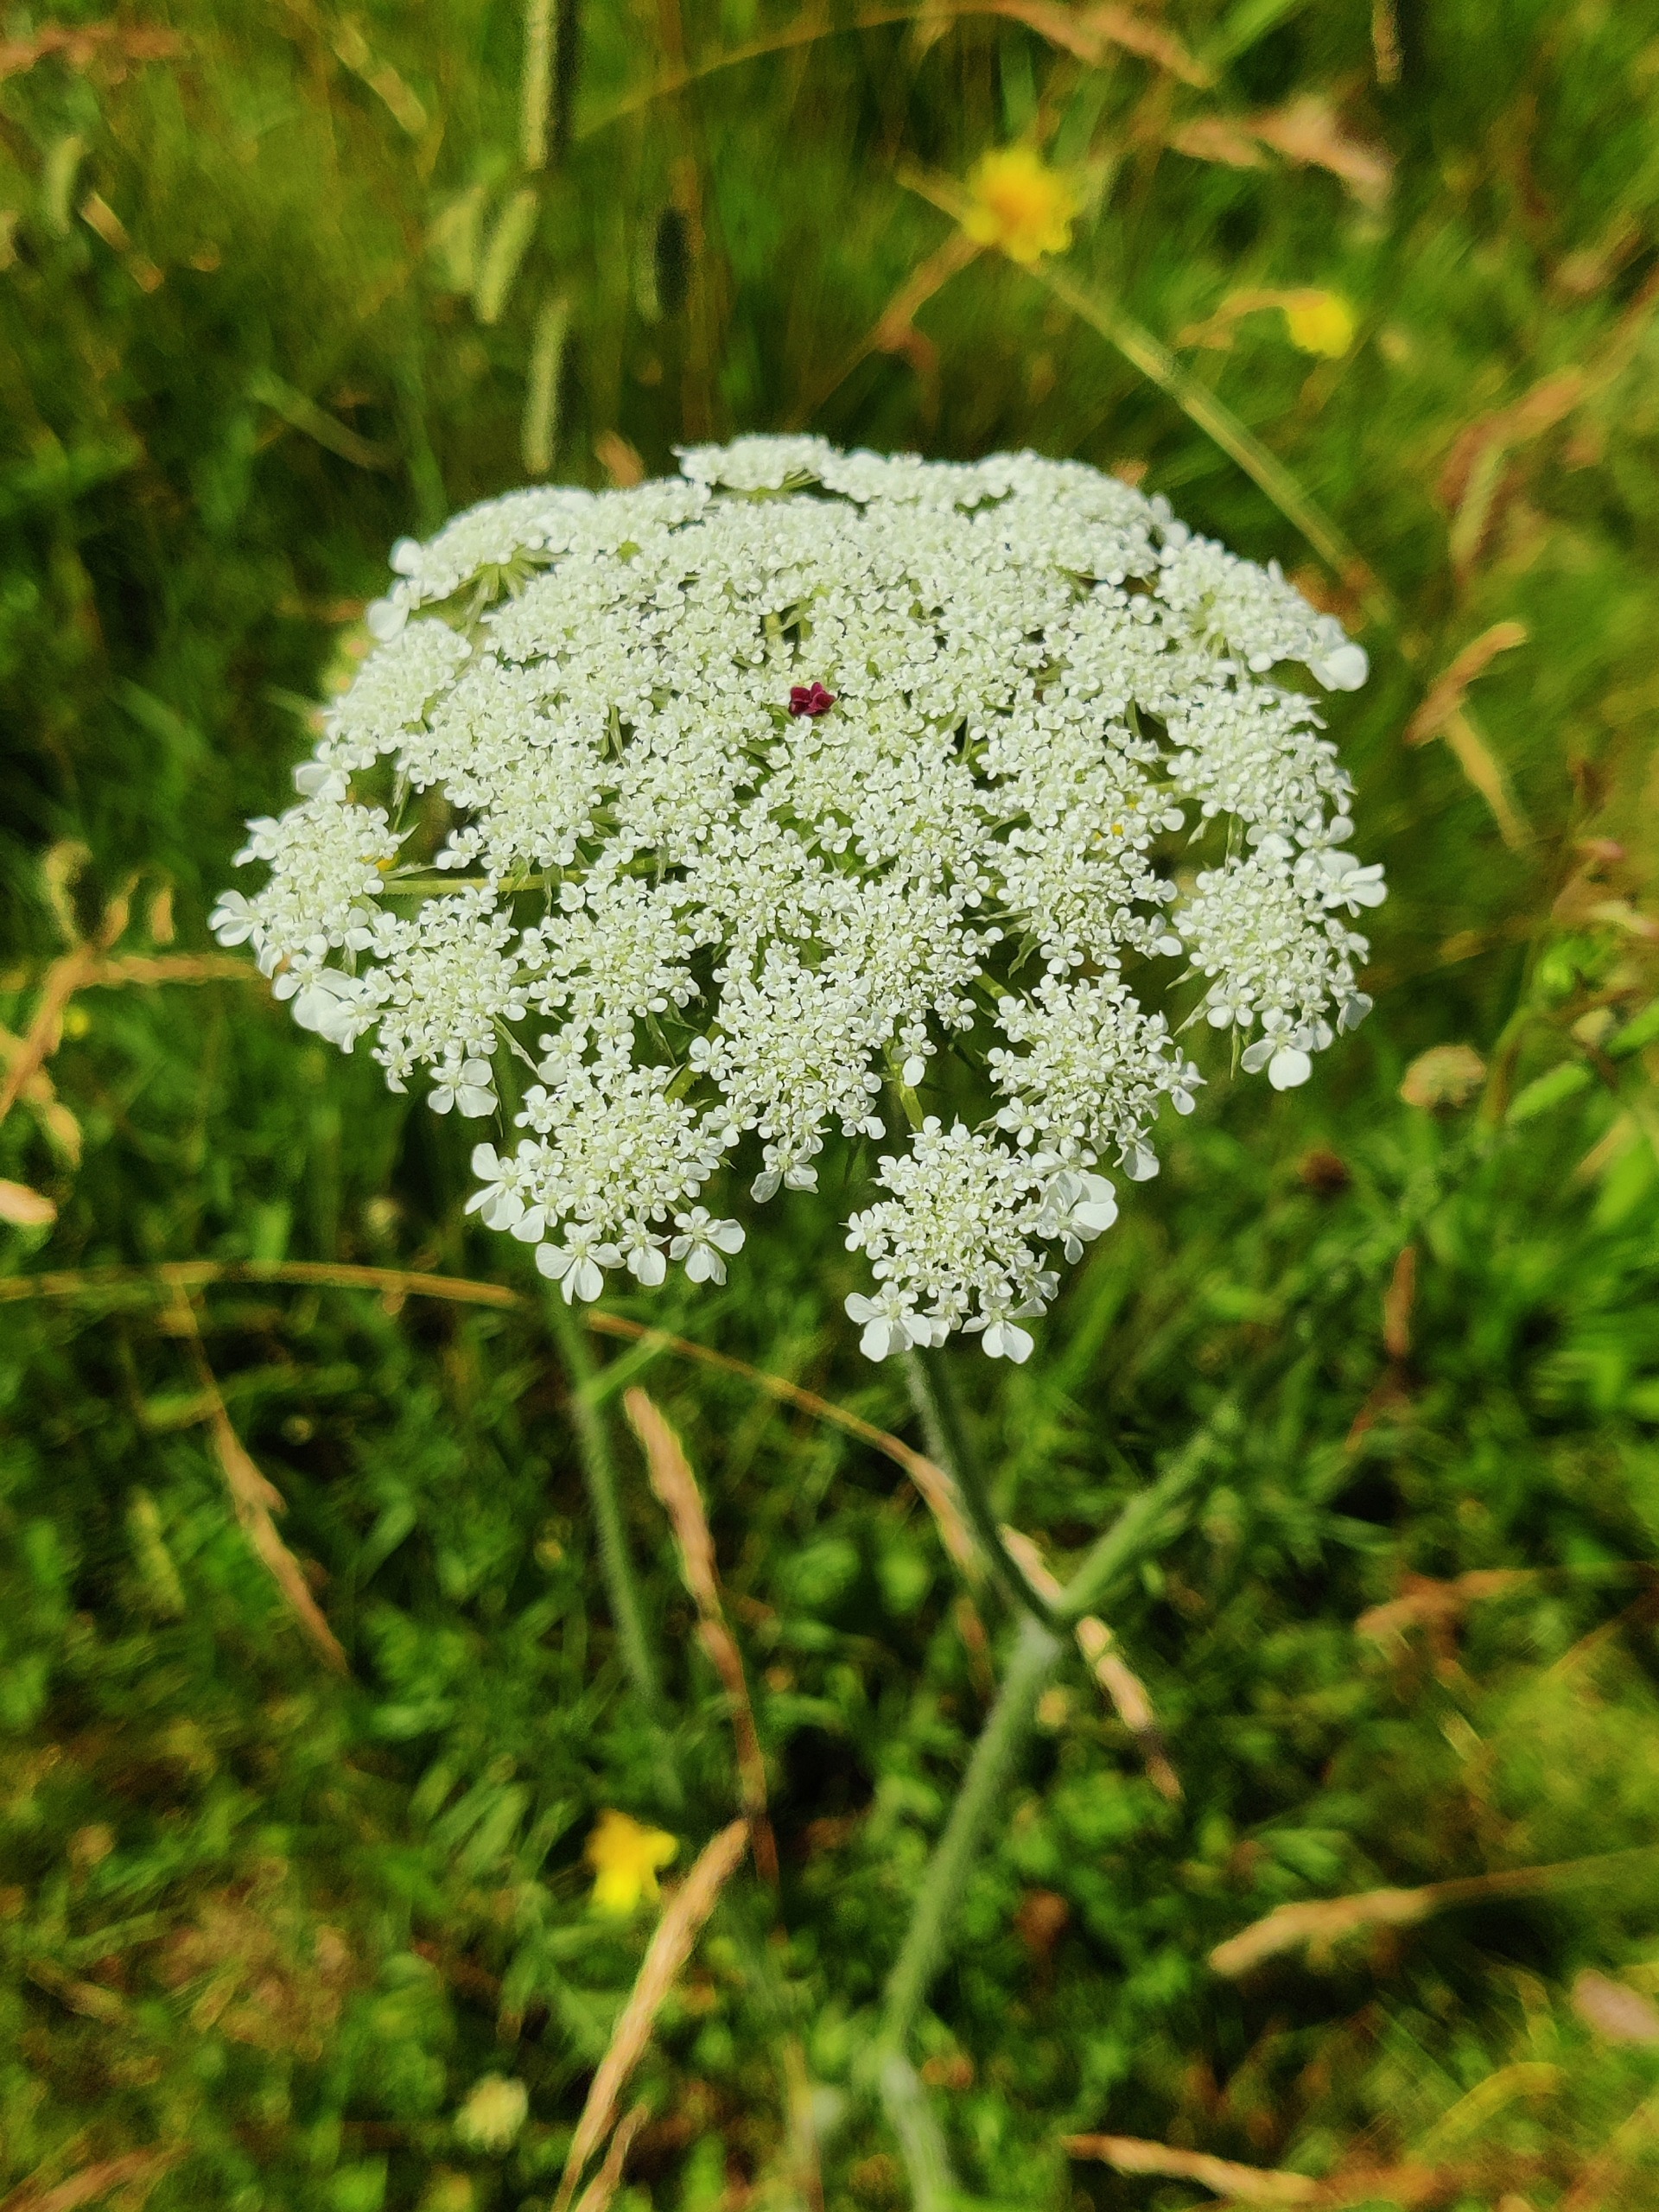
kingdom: Plantae
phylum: Tracheophyta
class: Magnoliopsida
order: Apiales
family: Apiaceae
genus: Daucus
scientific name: Daucus carota
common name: Gulerod
